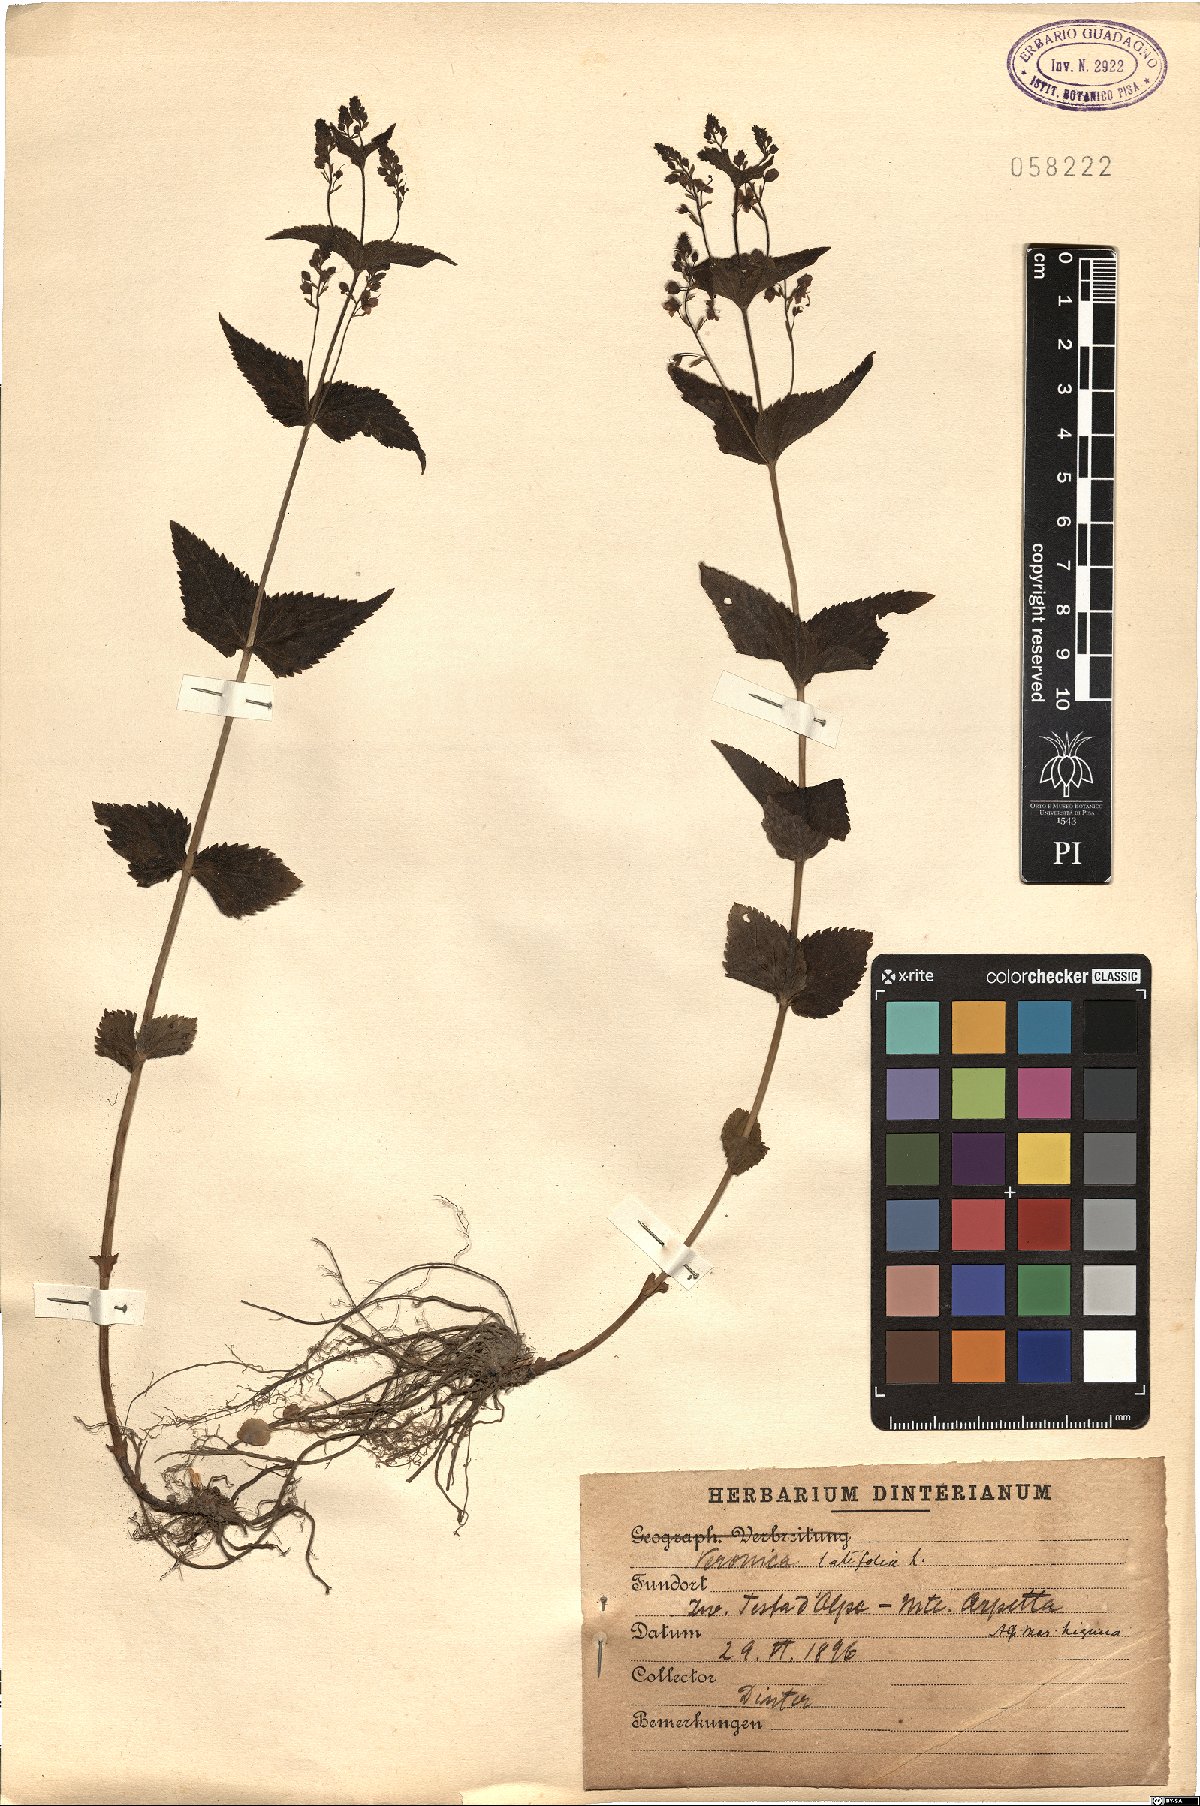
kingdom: Plantae
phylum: Tracheophyta
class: Magnoliopsida
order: Lamiales
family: Plantaginaceae
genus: Veronica
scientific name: Veronica teucrium
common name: Large speedwell
